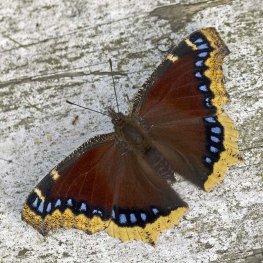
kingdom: Animalia
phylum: Arthropoda
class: Insecta
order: Lepidoptera
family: Nymphalidae
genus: Nymphalis
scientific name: Nymphalis antiopa
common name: Mourning Cloak
